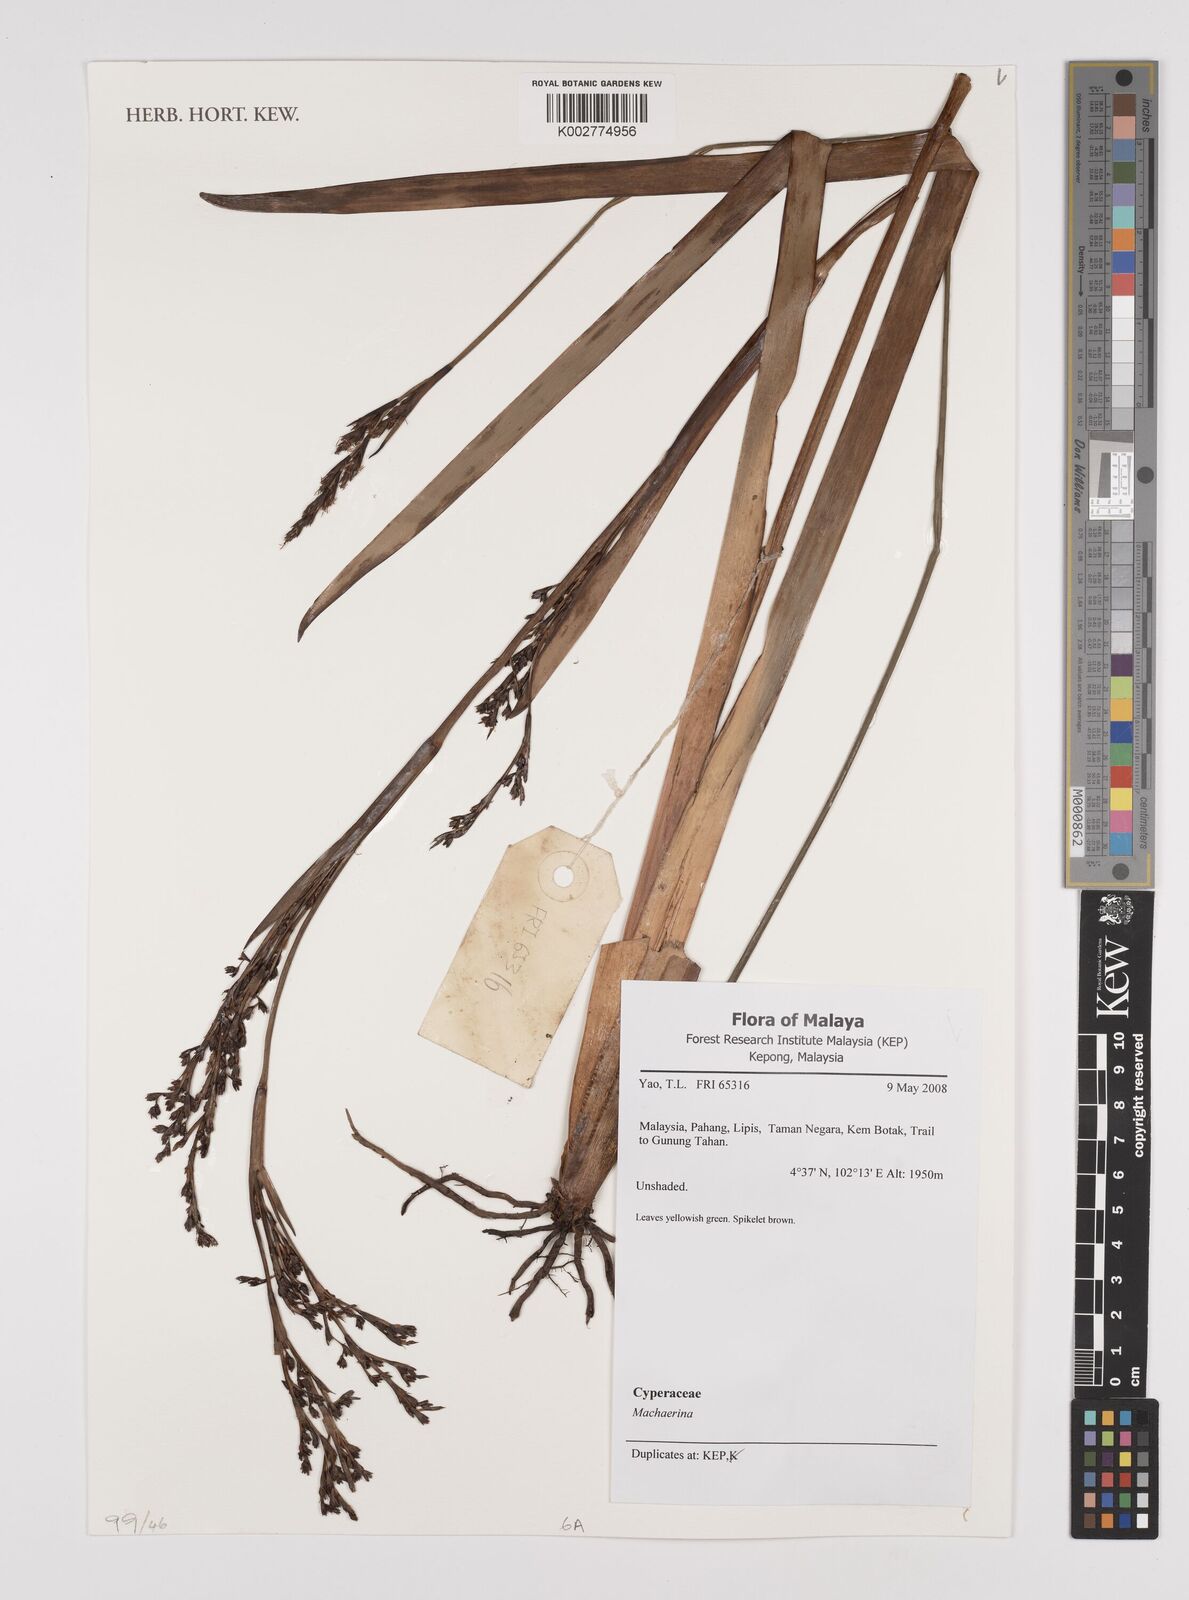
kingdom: Plantae
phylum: Tracheophyta
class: Liliopsida
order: Poales
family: Cyperaceae
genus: Machaerina
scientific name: Machaerina
